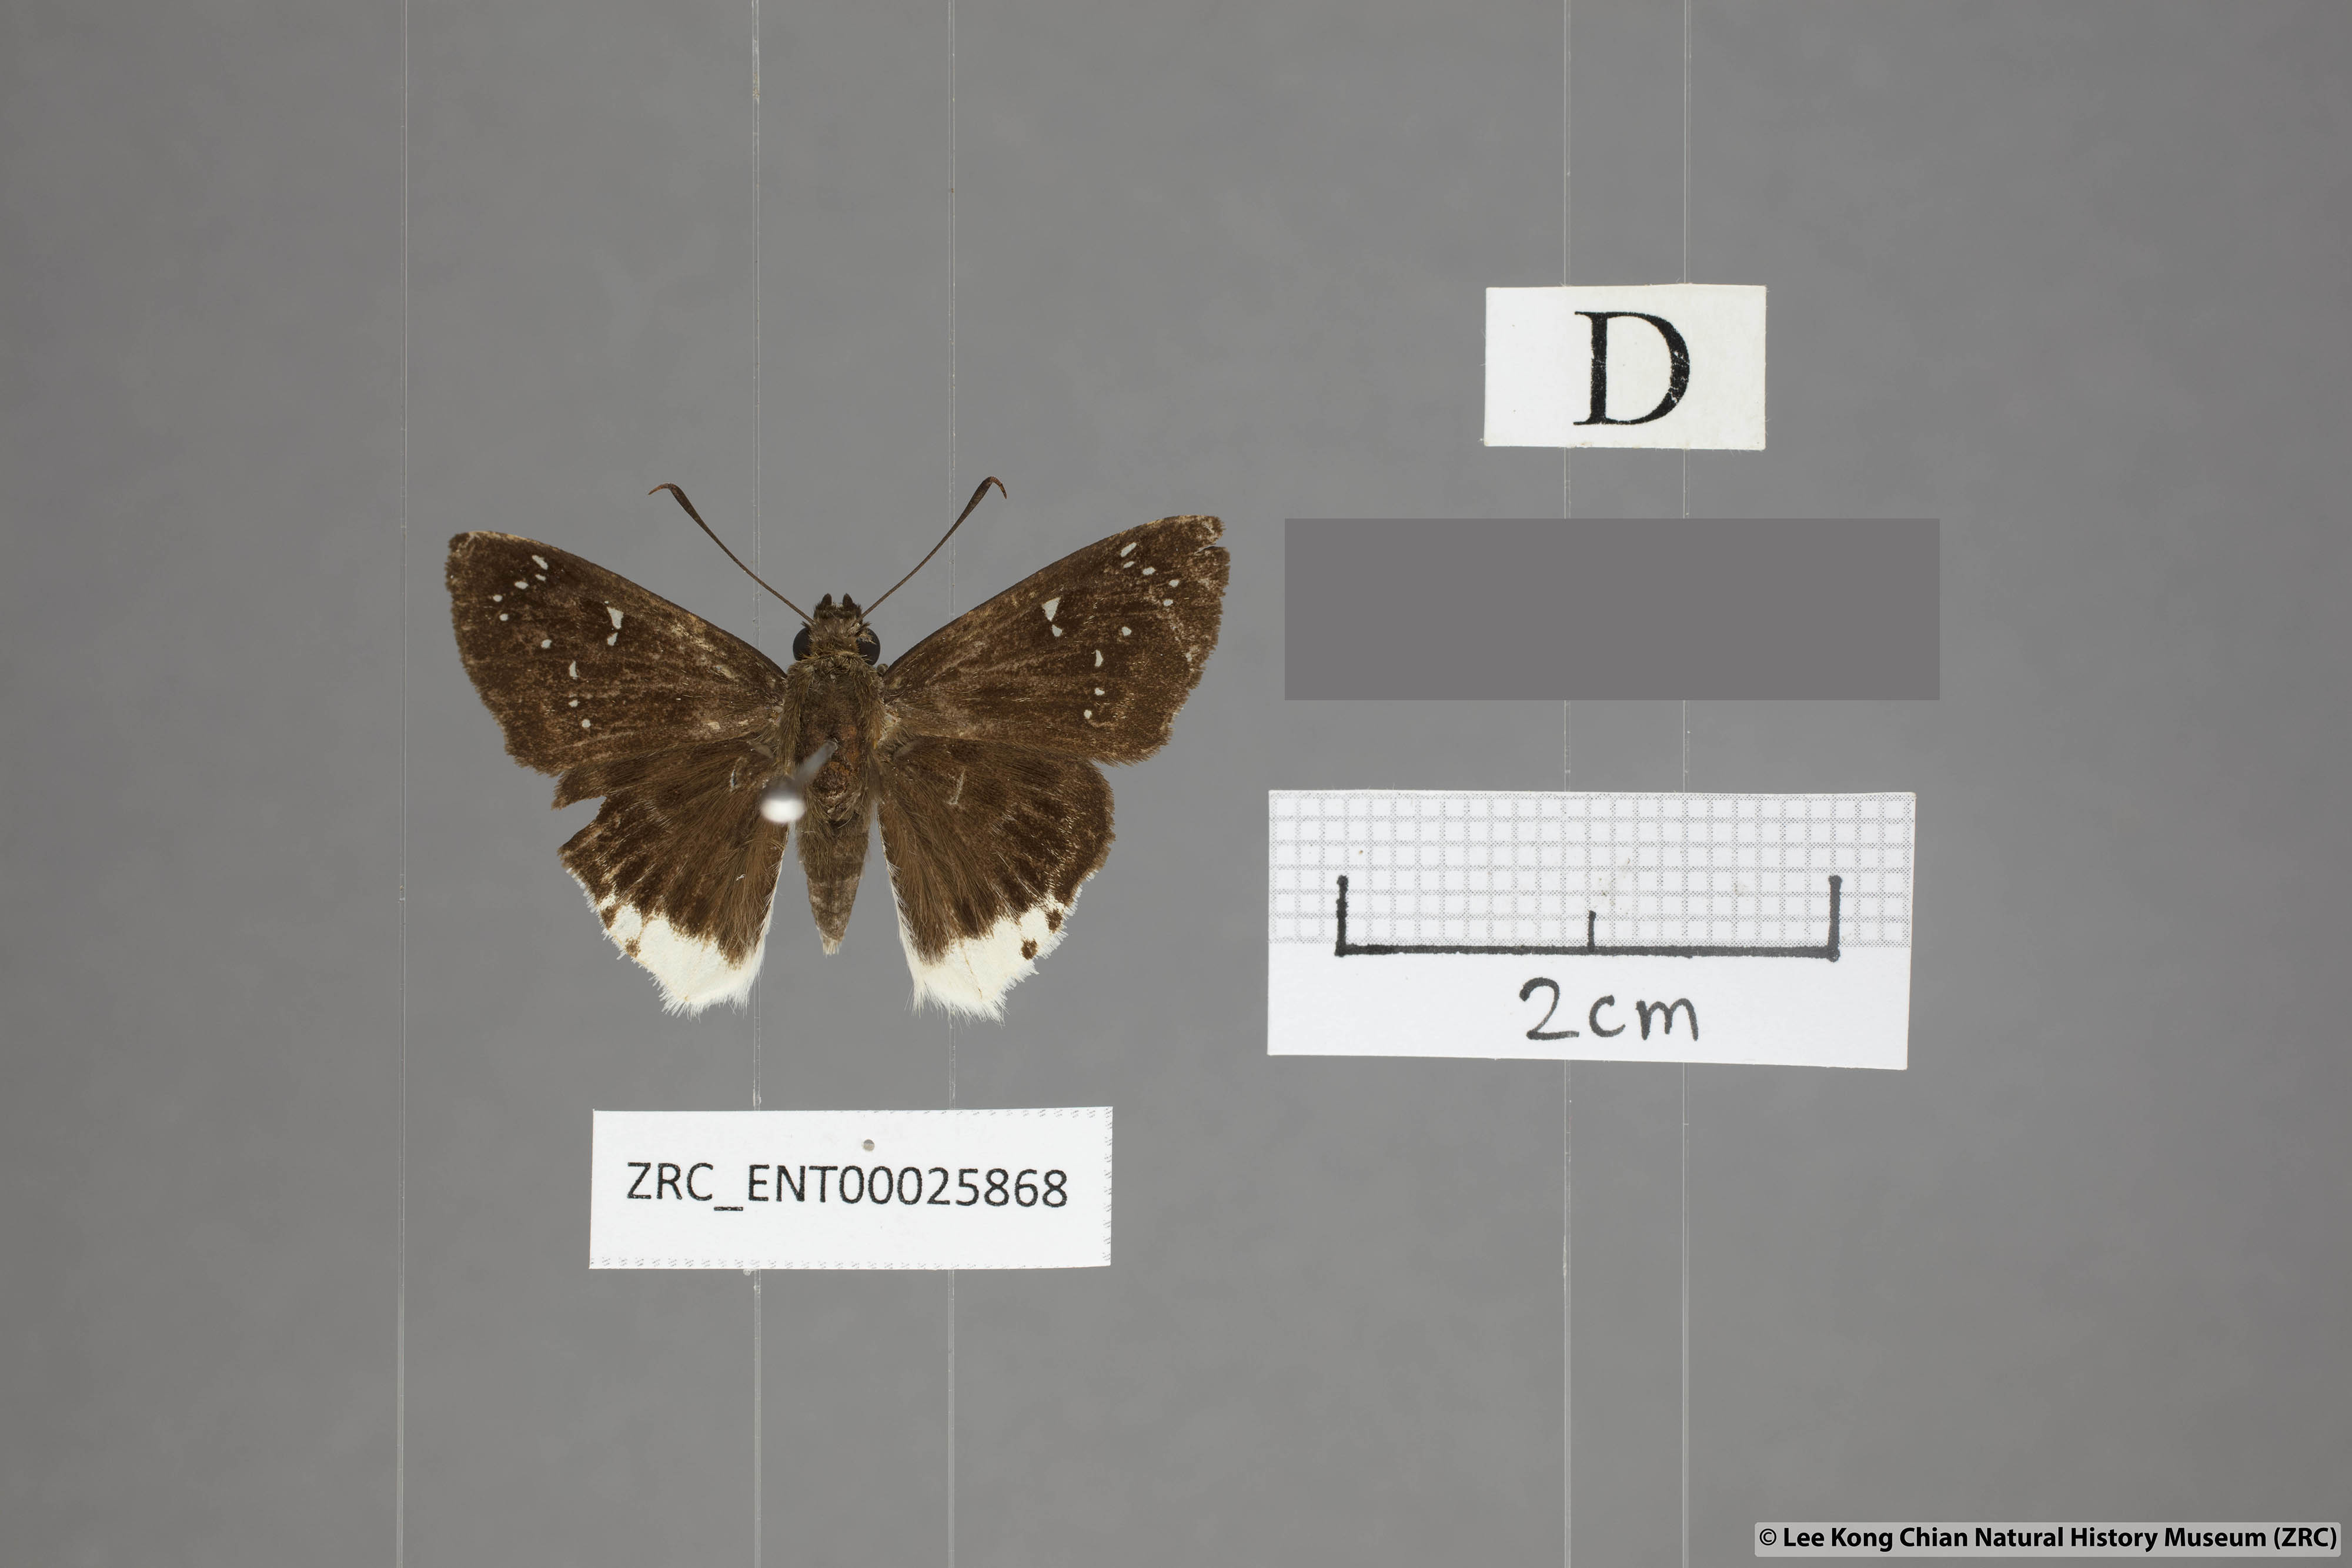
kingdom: Animalia
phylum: Arthropoda
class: Insecta
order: Lepidoptera
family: Hesperiidae
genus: Darpa
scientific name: Darpa striata
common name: Striated angle
